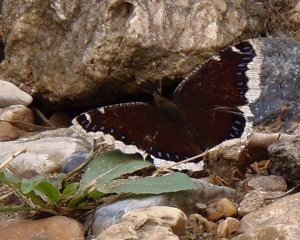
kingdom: Animalia
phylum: Arthropoda
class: Insecta
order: Lepidoptera
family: Nymphalidae
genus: Nymphalis
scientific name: Nymphalis antiopa
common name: Mourning Cloak
